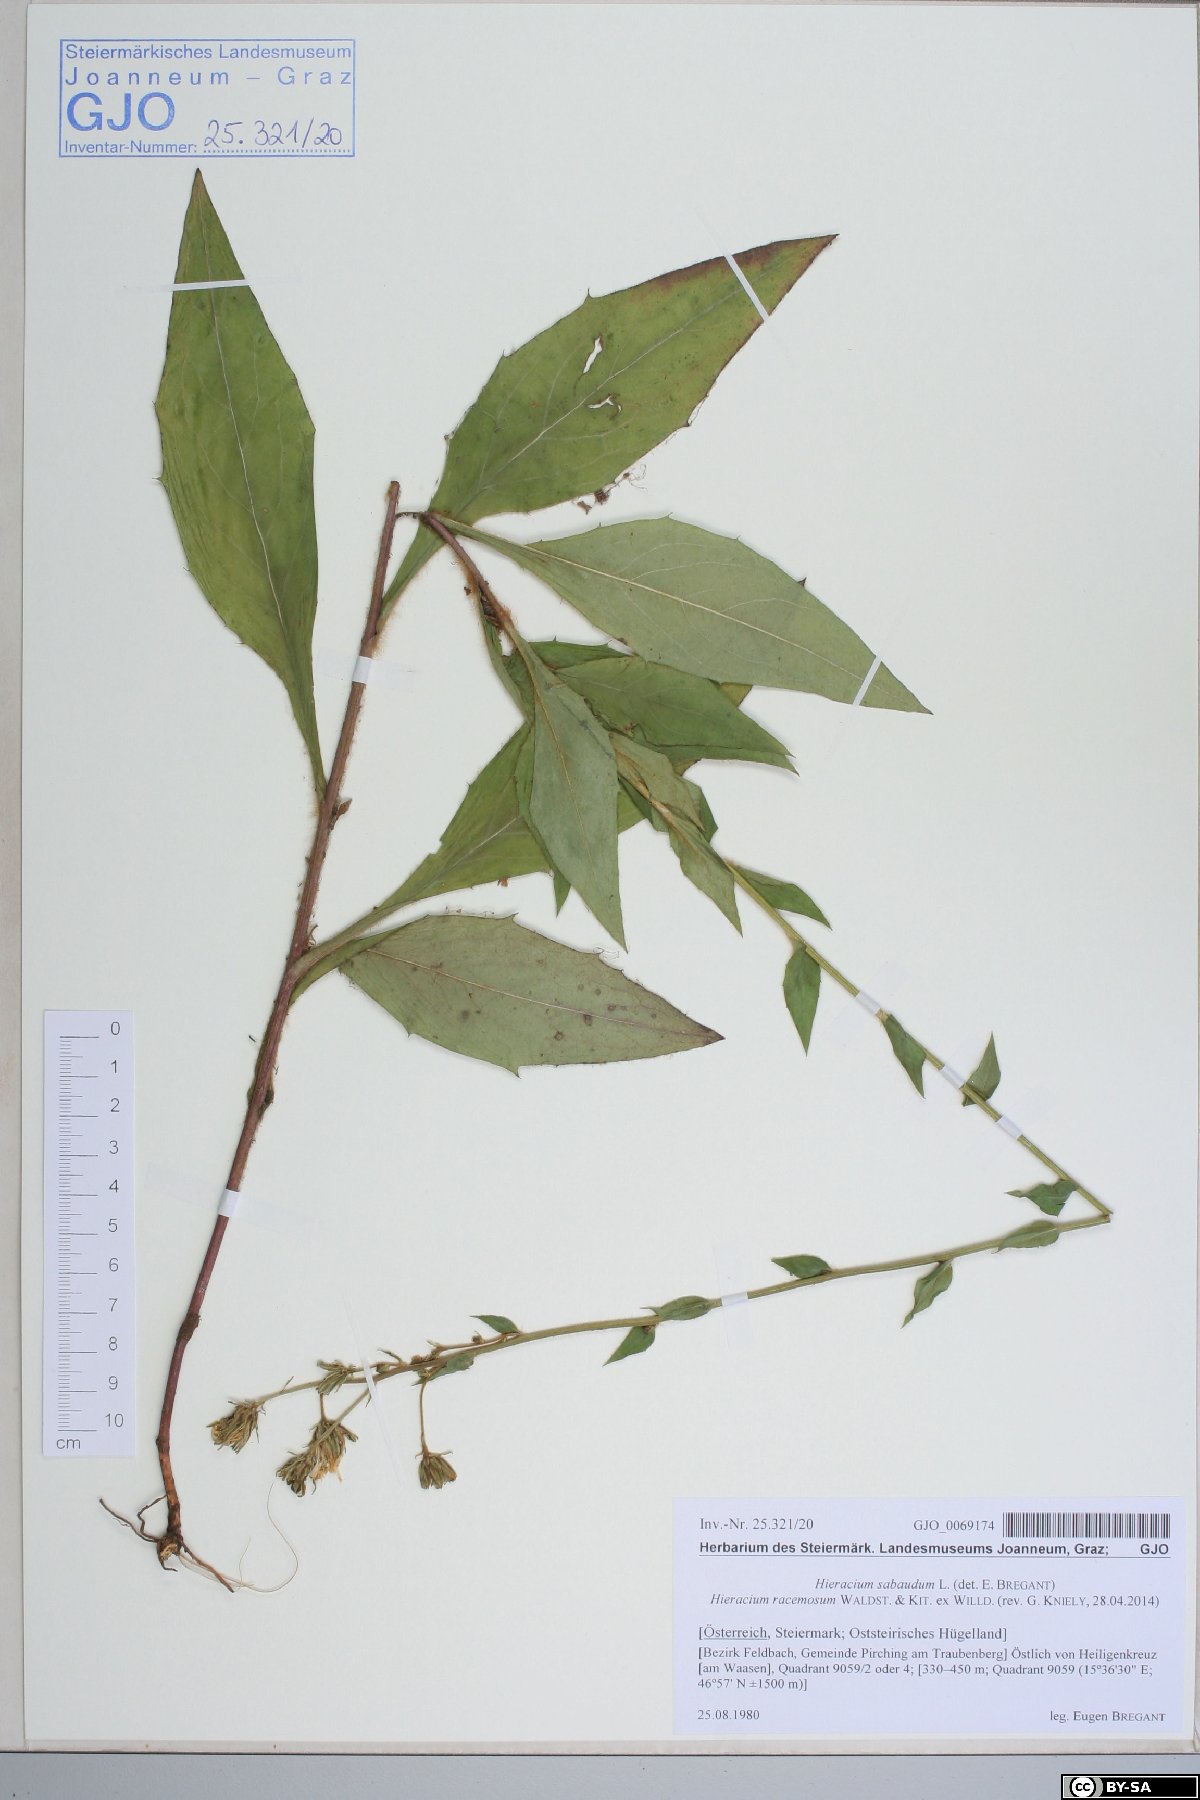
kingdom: Plantae
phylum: Tracheophyta
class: Magnoliopsida
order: Asterales
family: Asteraceae
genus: Hieracium
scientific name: Hieracium racemosum
